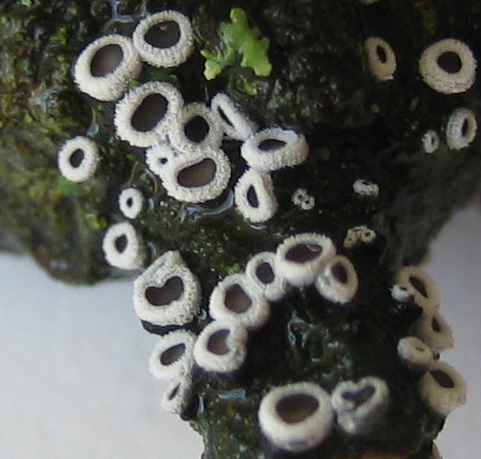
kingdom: Fungi
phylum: Basidiomycota
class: Agaricomycetes
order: Agaricales
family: Niaceae
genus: Lachnella
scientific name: Lachnella alboviolascens
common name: grå frynserede
